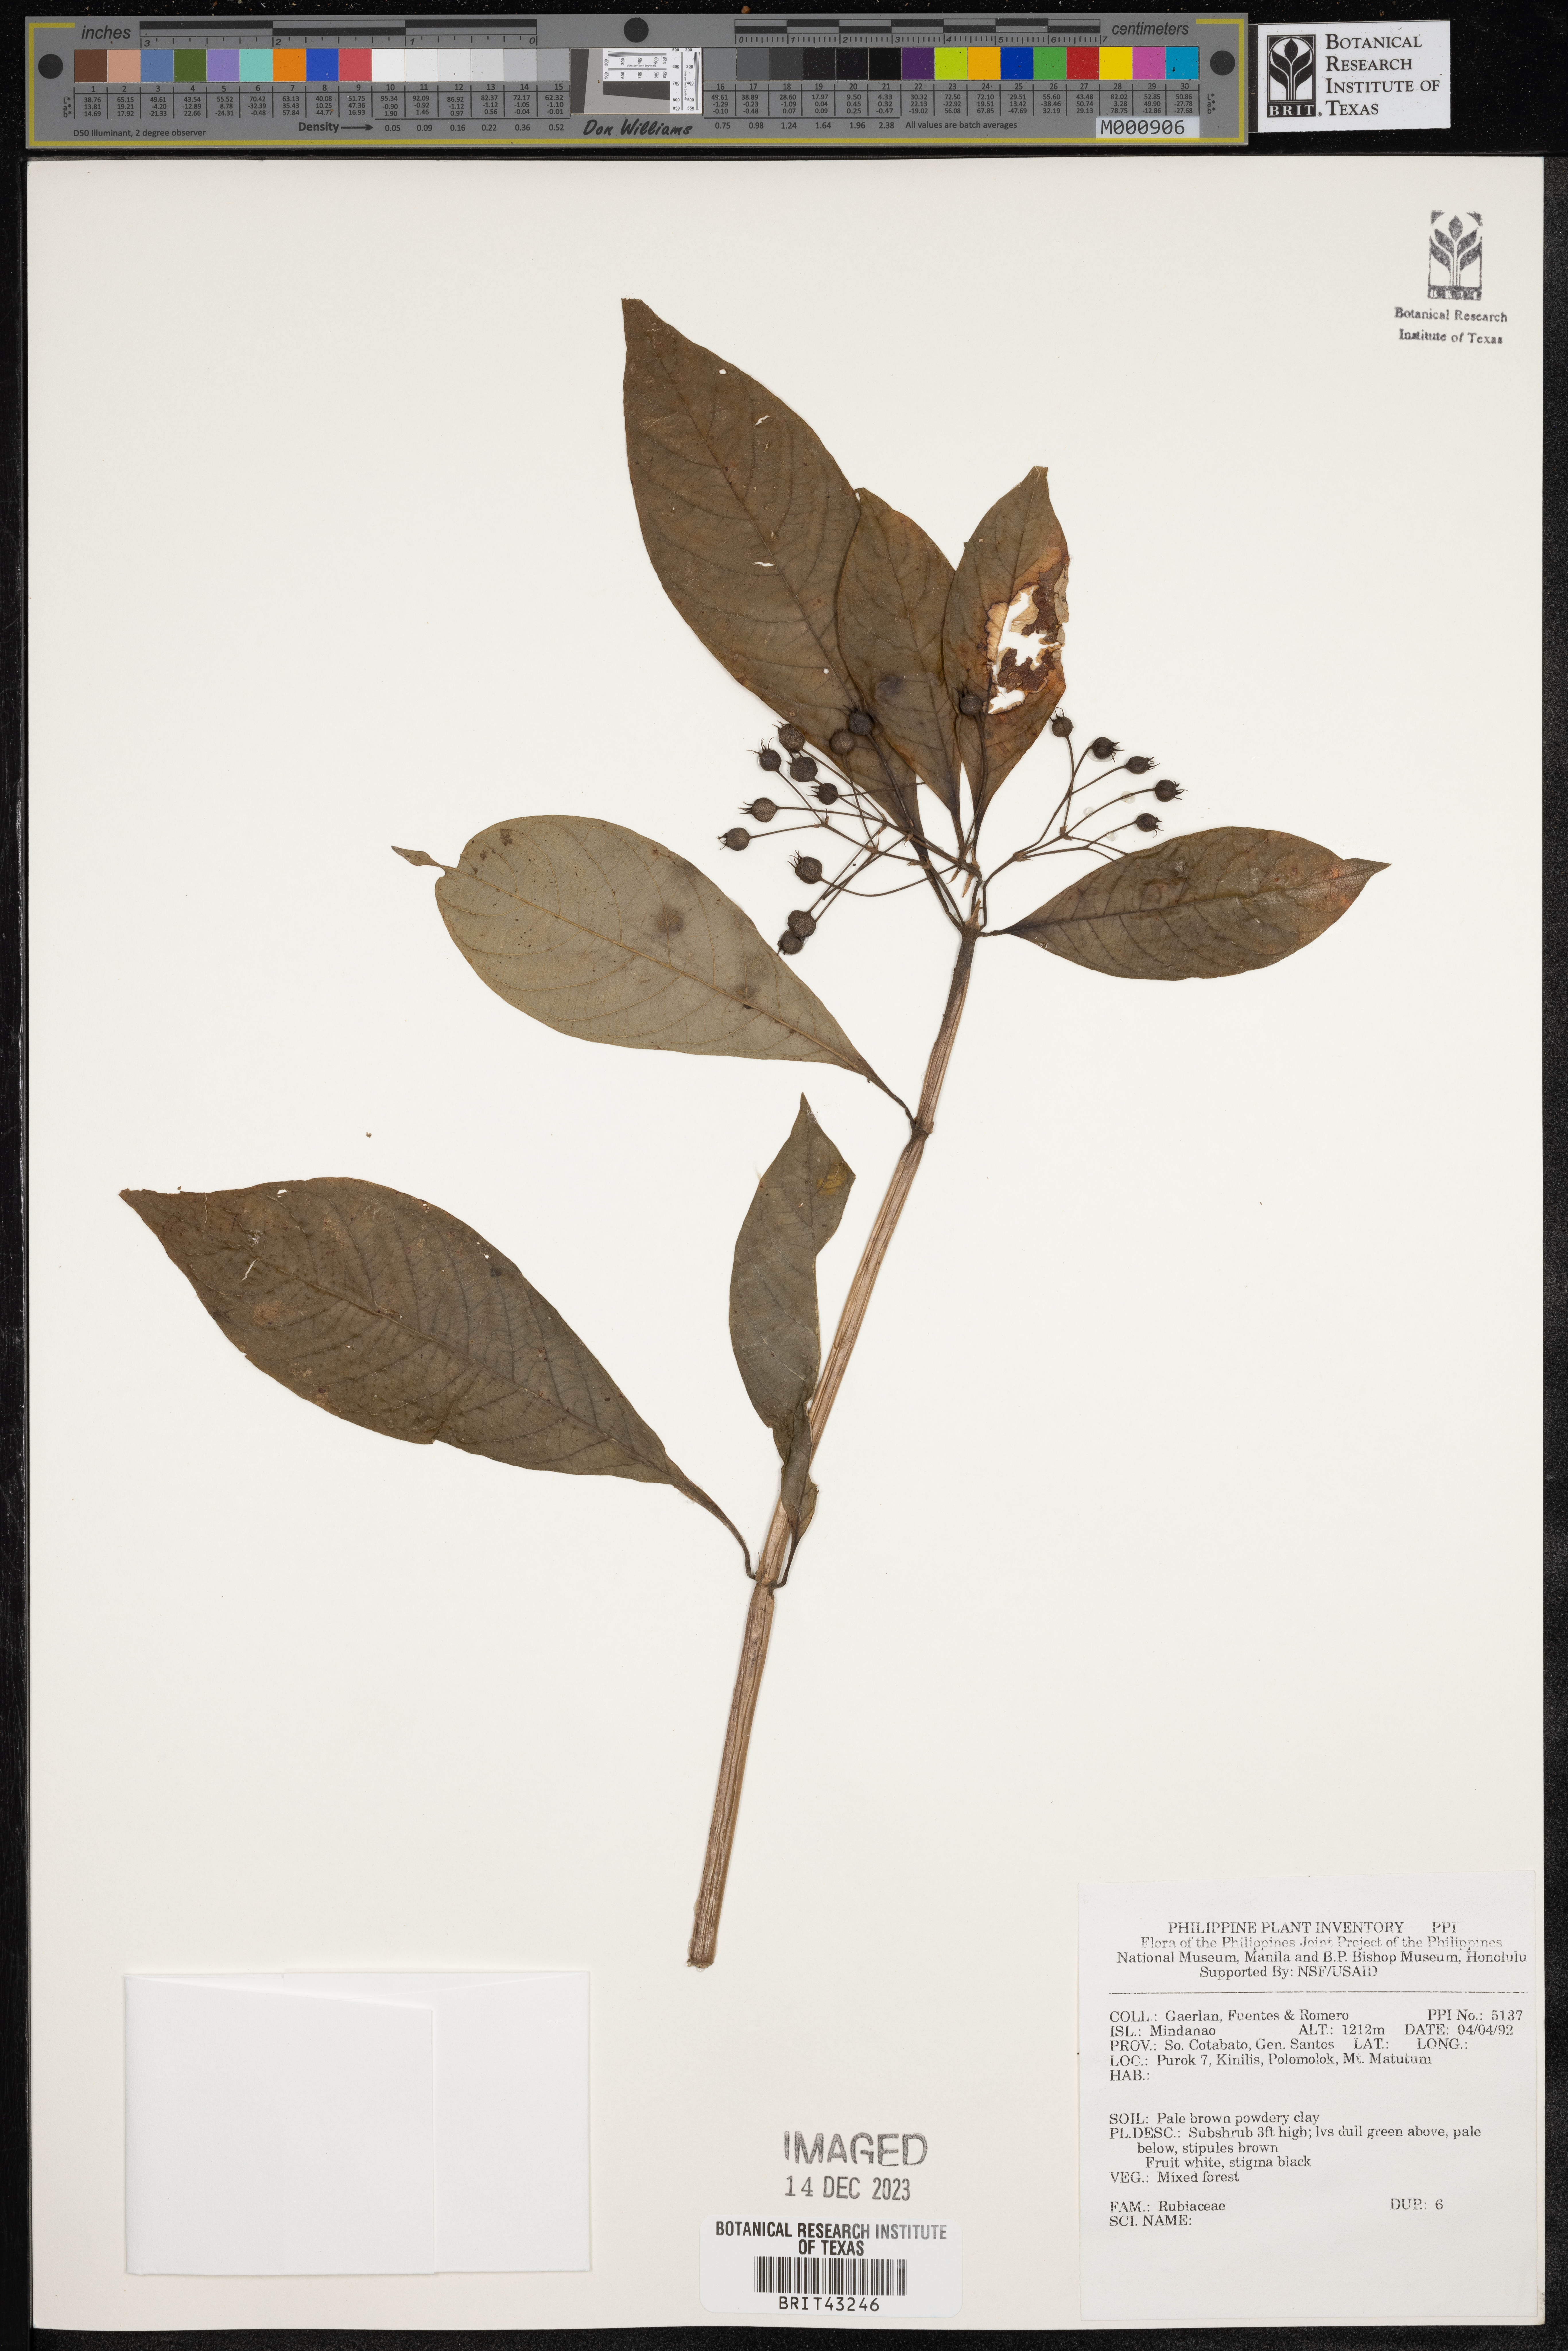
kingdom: Plantae
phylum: Tracheophyta
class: Magnoliopsida
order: Gentianales
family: Rubiaceae
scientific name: Rubiaceae
